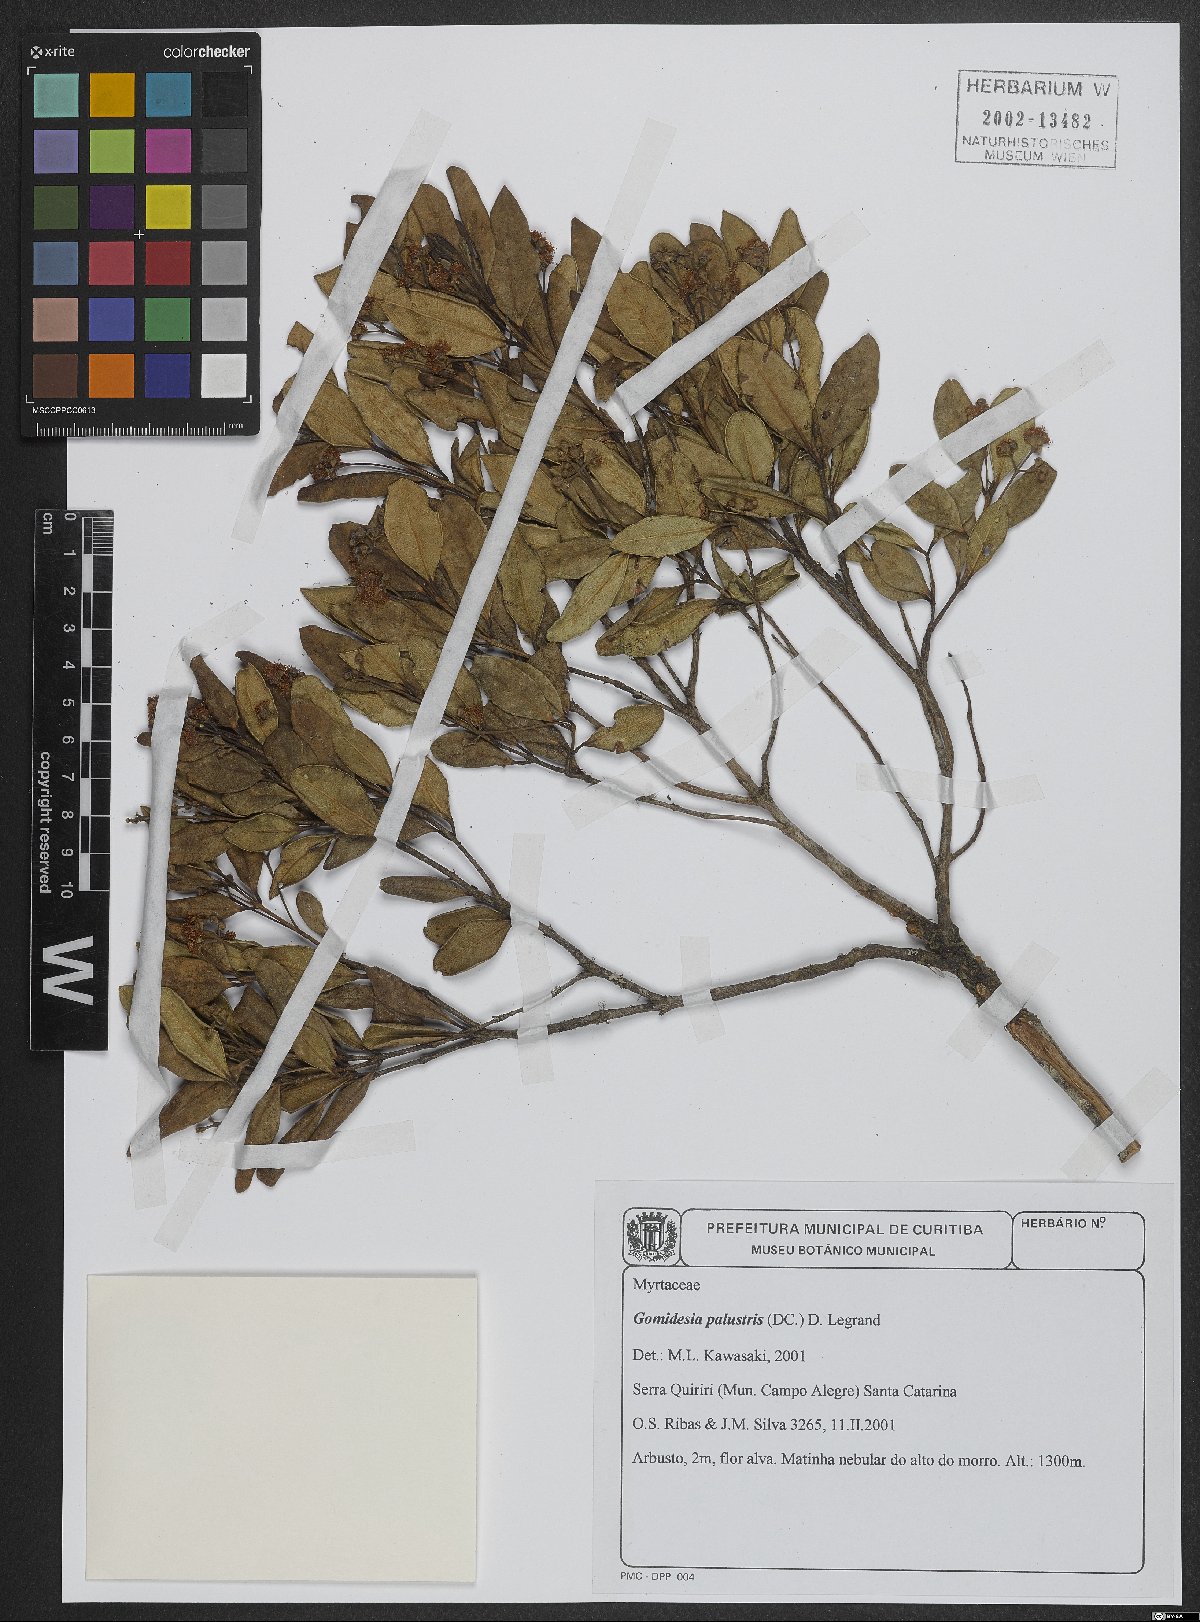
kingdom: Plantae
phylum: Tracheophyta
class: Magnoliopsida
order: Myrtales
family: Myrtaceae
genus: Myrcia
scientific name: Myrcia palustris
